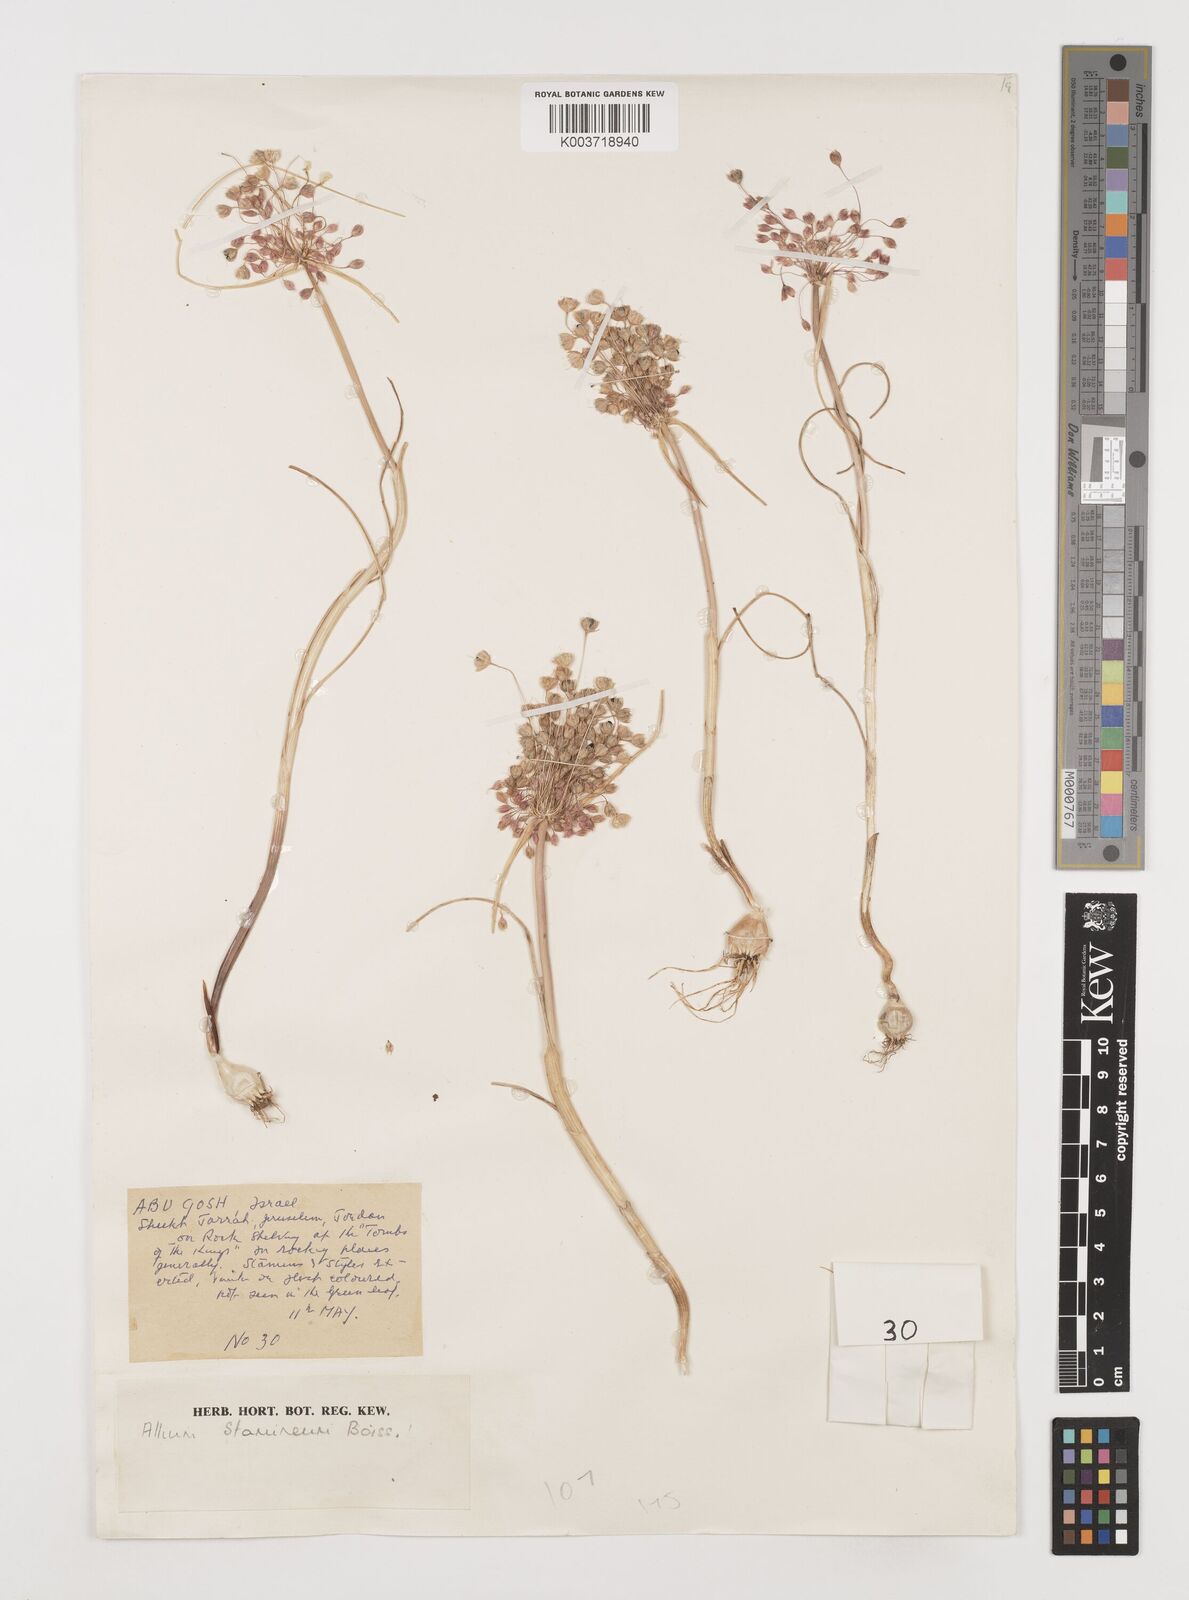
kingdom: Plantae
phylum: Tracheophyta
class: Liliopsida
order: Asparagales
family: Amaryllidaceae
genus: Allium
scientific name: Allium stamineum
